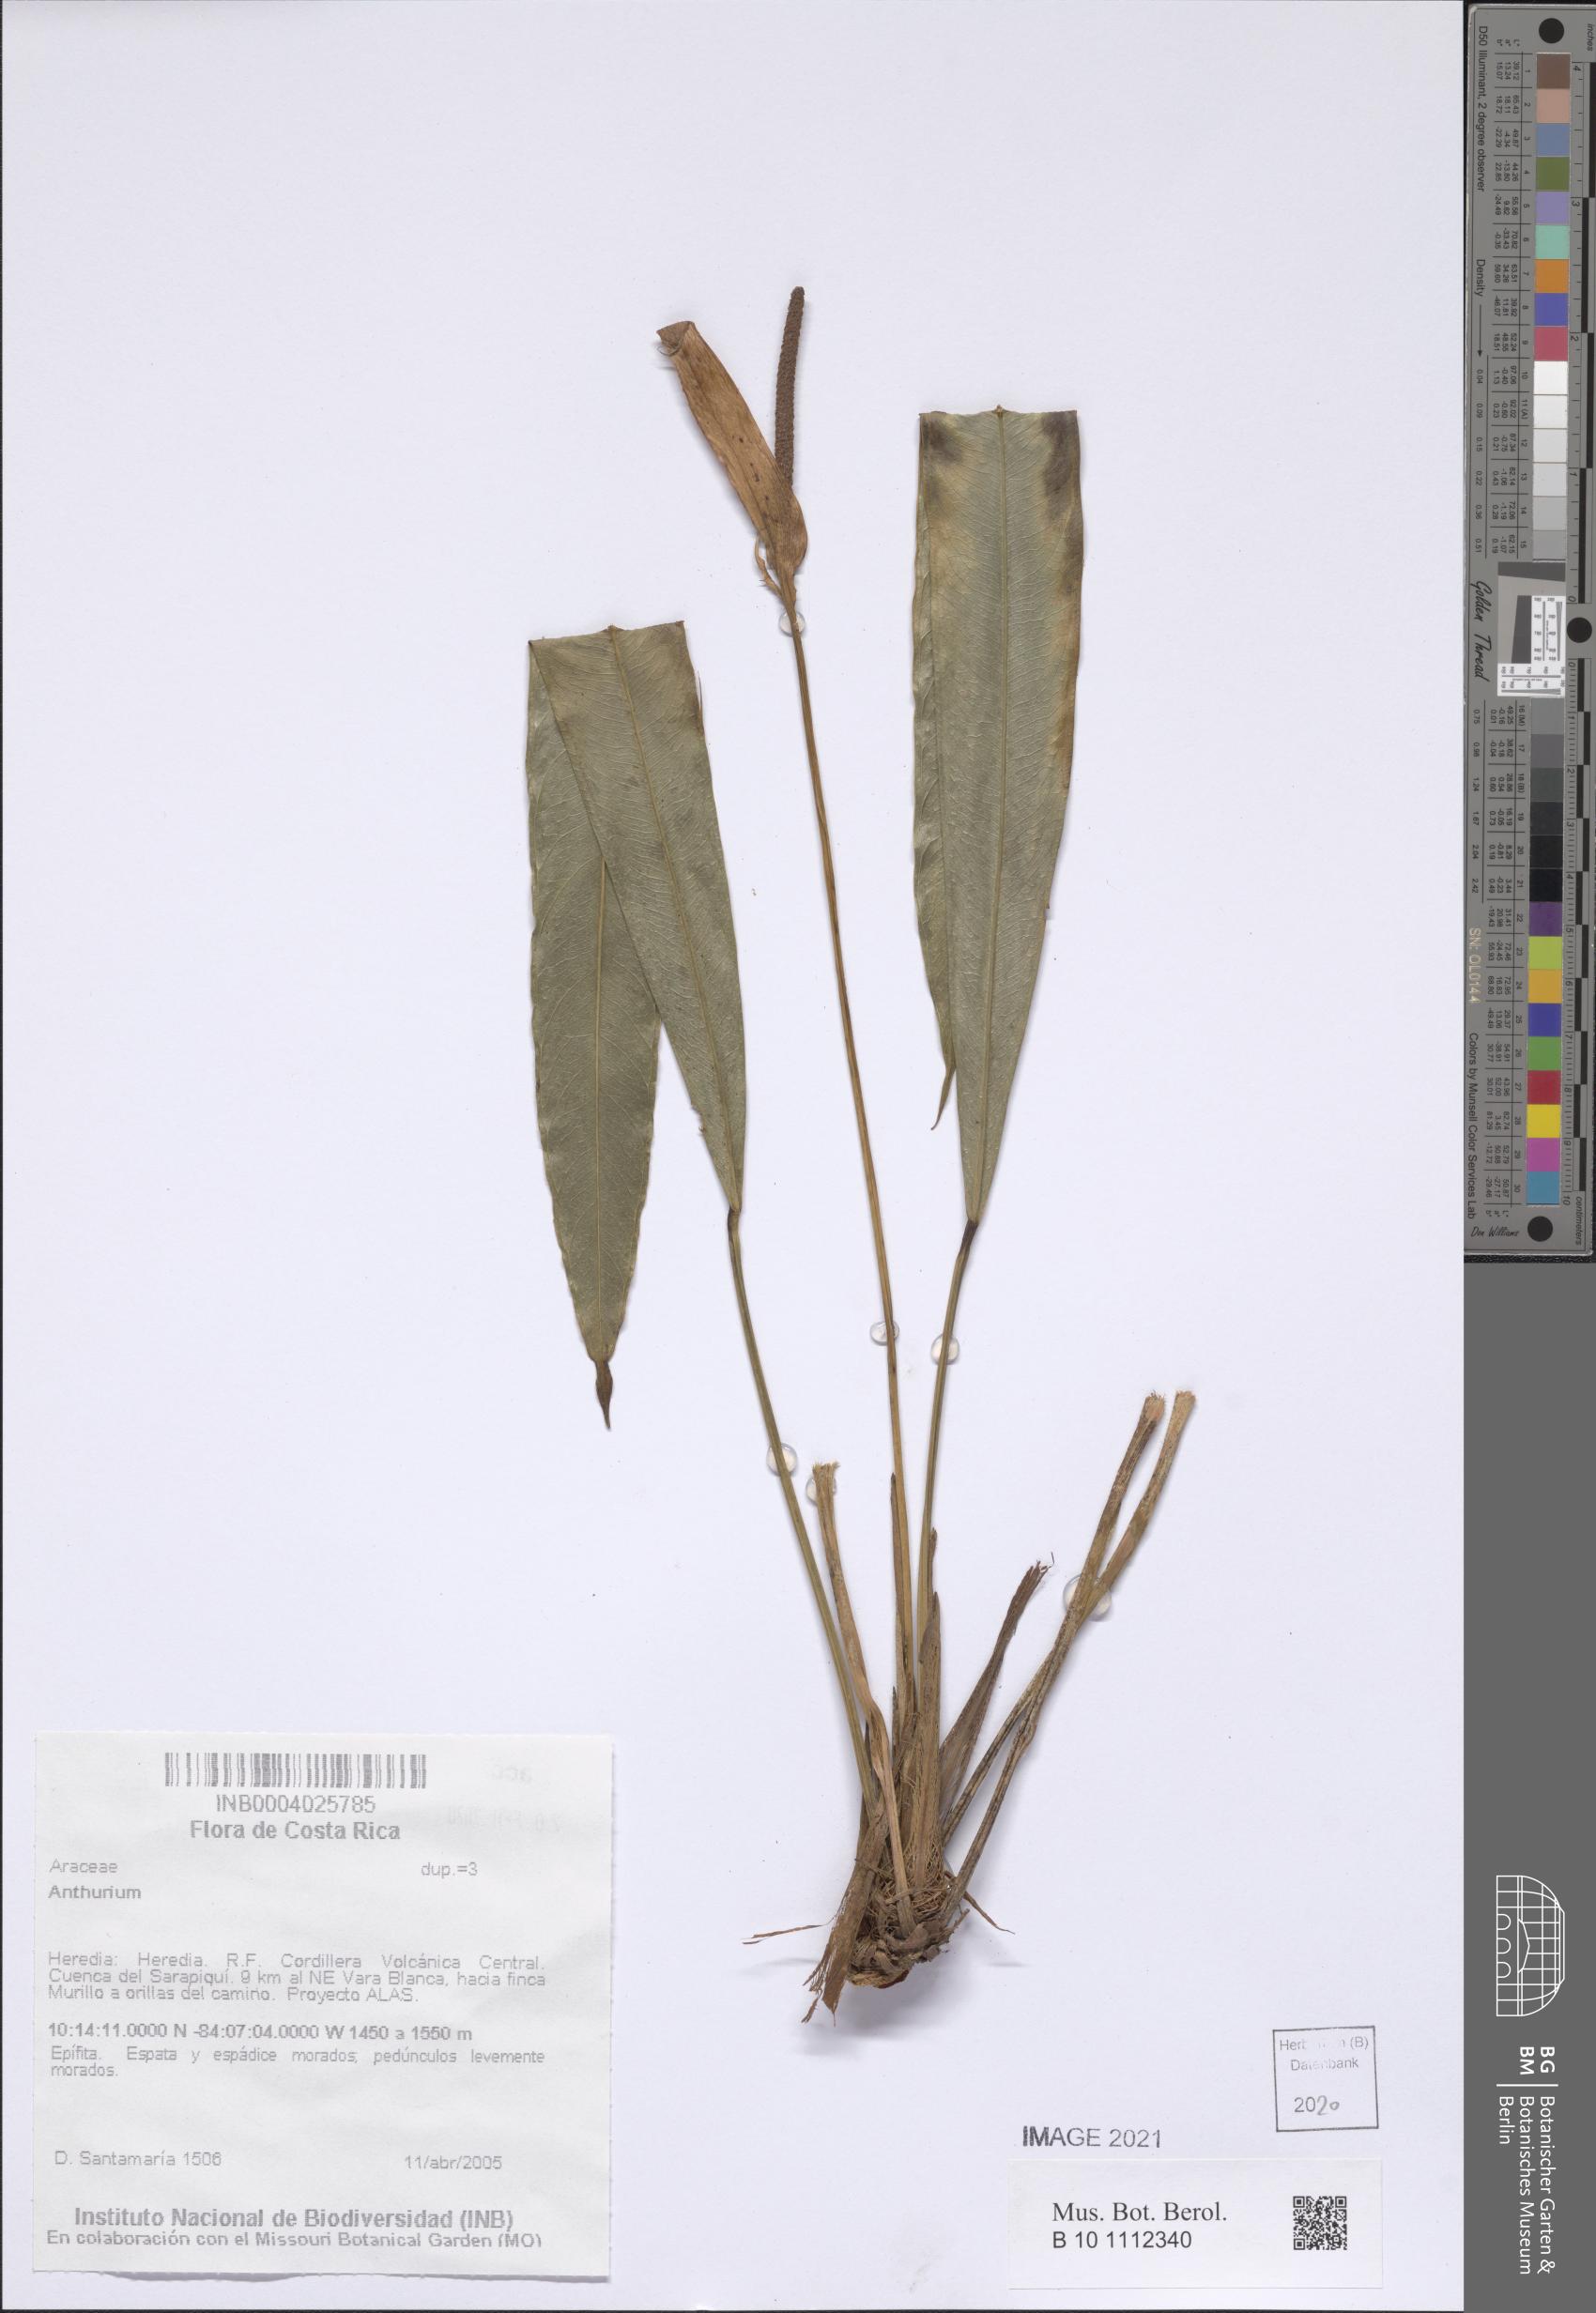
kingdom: Plantae
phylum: Tracheophyta
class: Liliopsida
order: Alismatales
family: Araceae
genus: Anthurium
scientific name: Anthurium
